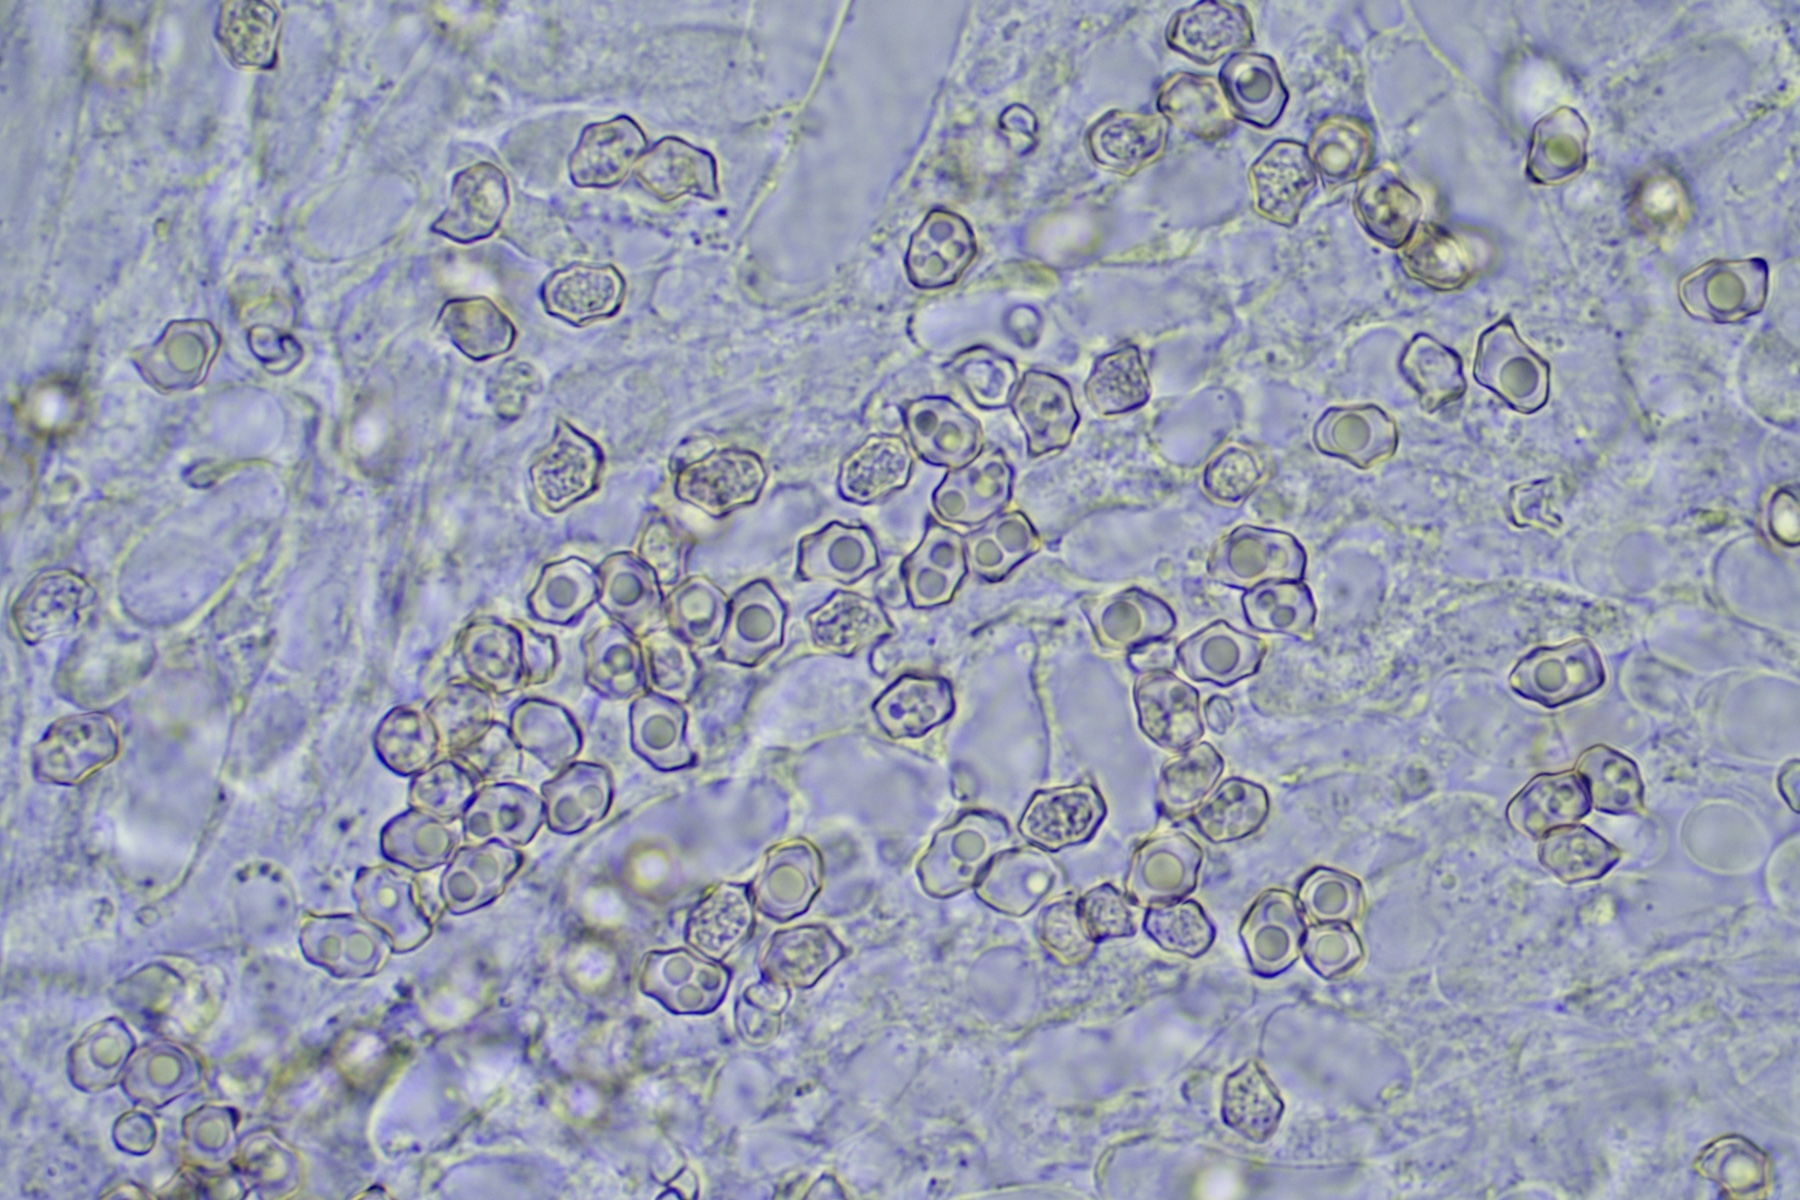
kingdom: Fungi
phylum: Basidiomycota
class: Agaricomycetes
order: Agaricales
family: Entolomataceae
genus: Entoloma
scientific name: Entoloma lilacinoroseum
